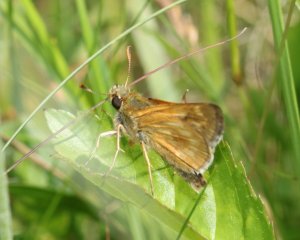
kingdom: Animalia
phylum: Arthropoda
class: Insecta
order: Lepidoptera
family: Hesperiidae
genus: Polites
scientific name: Polites
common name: Long Dash Skipper
